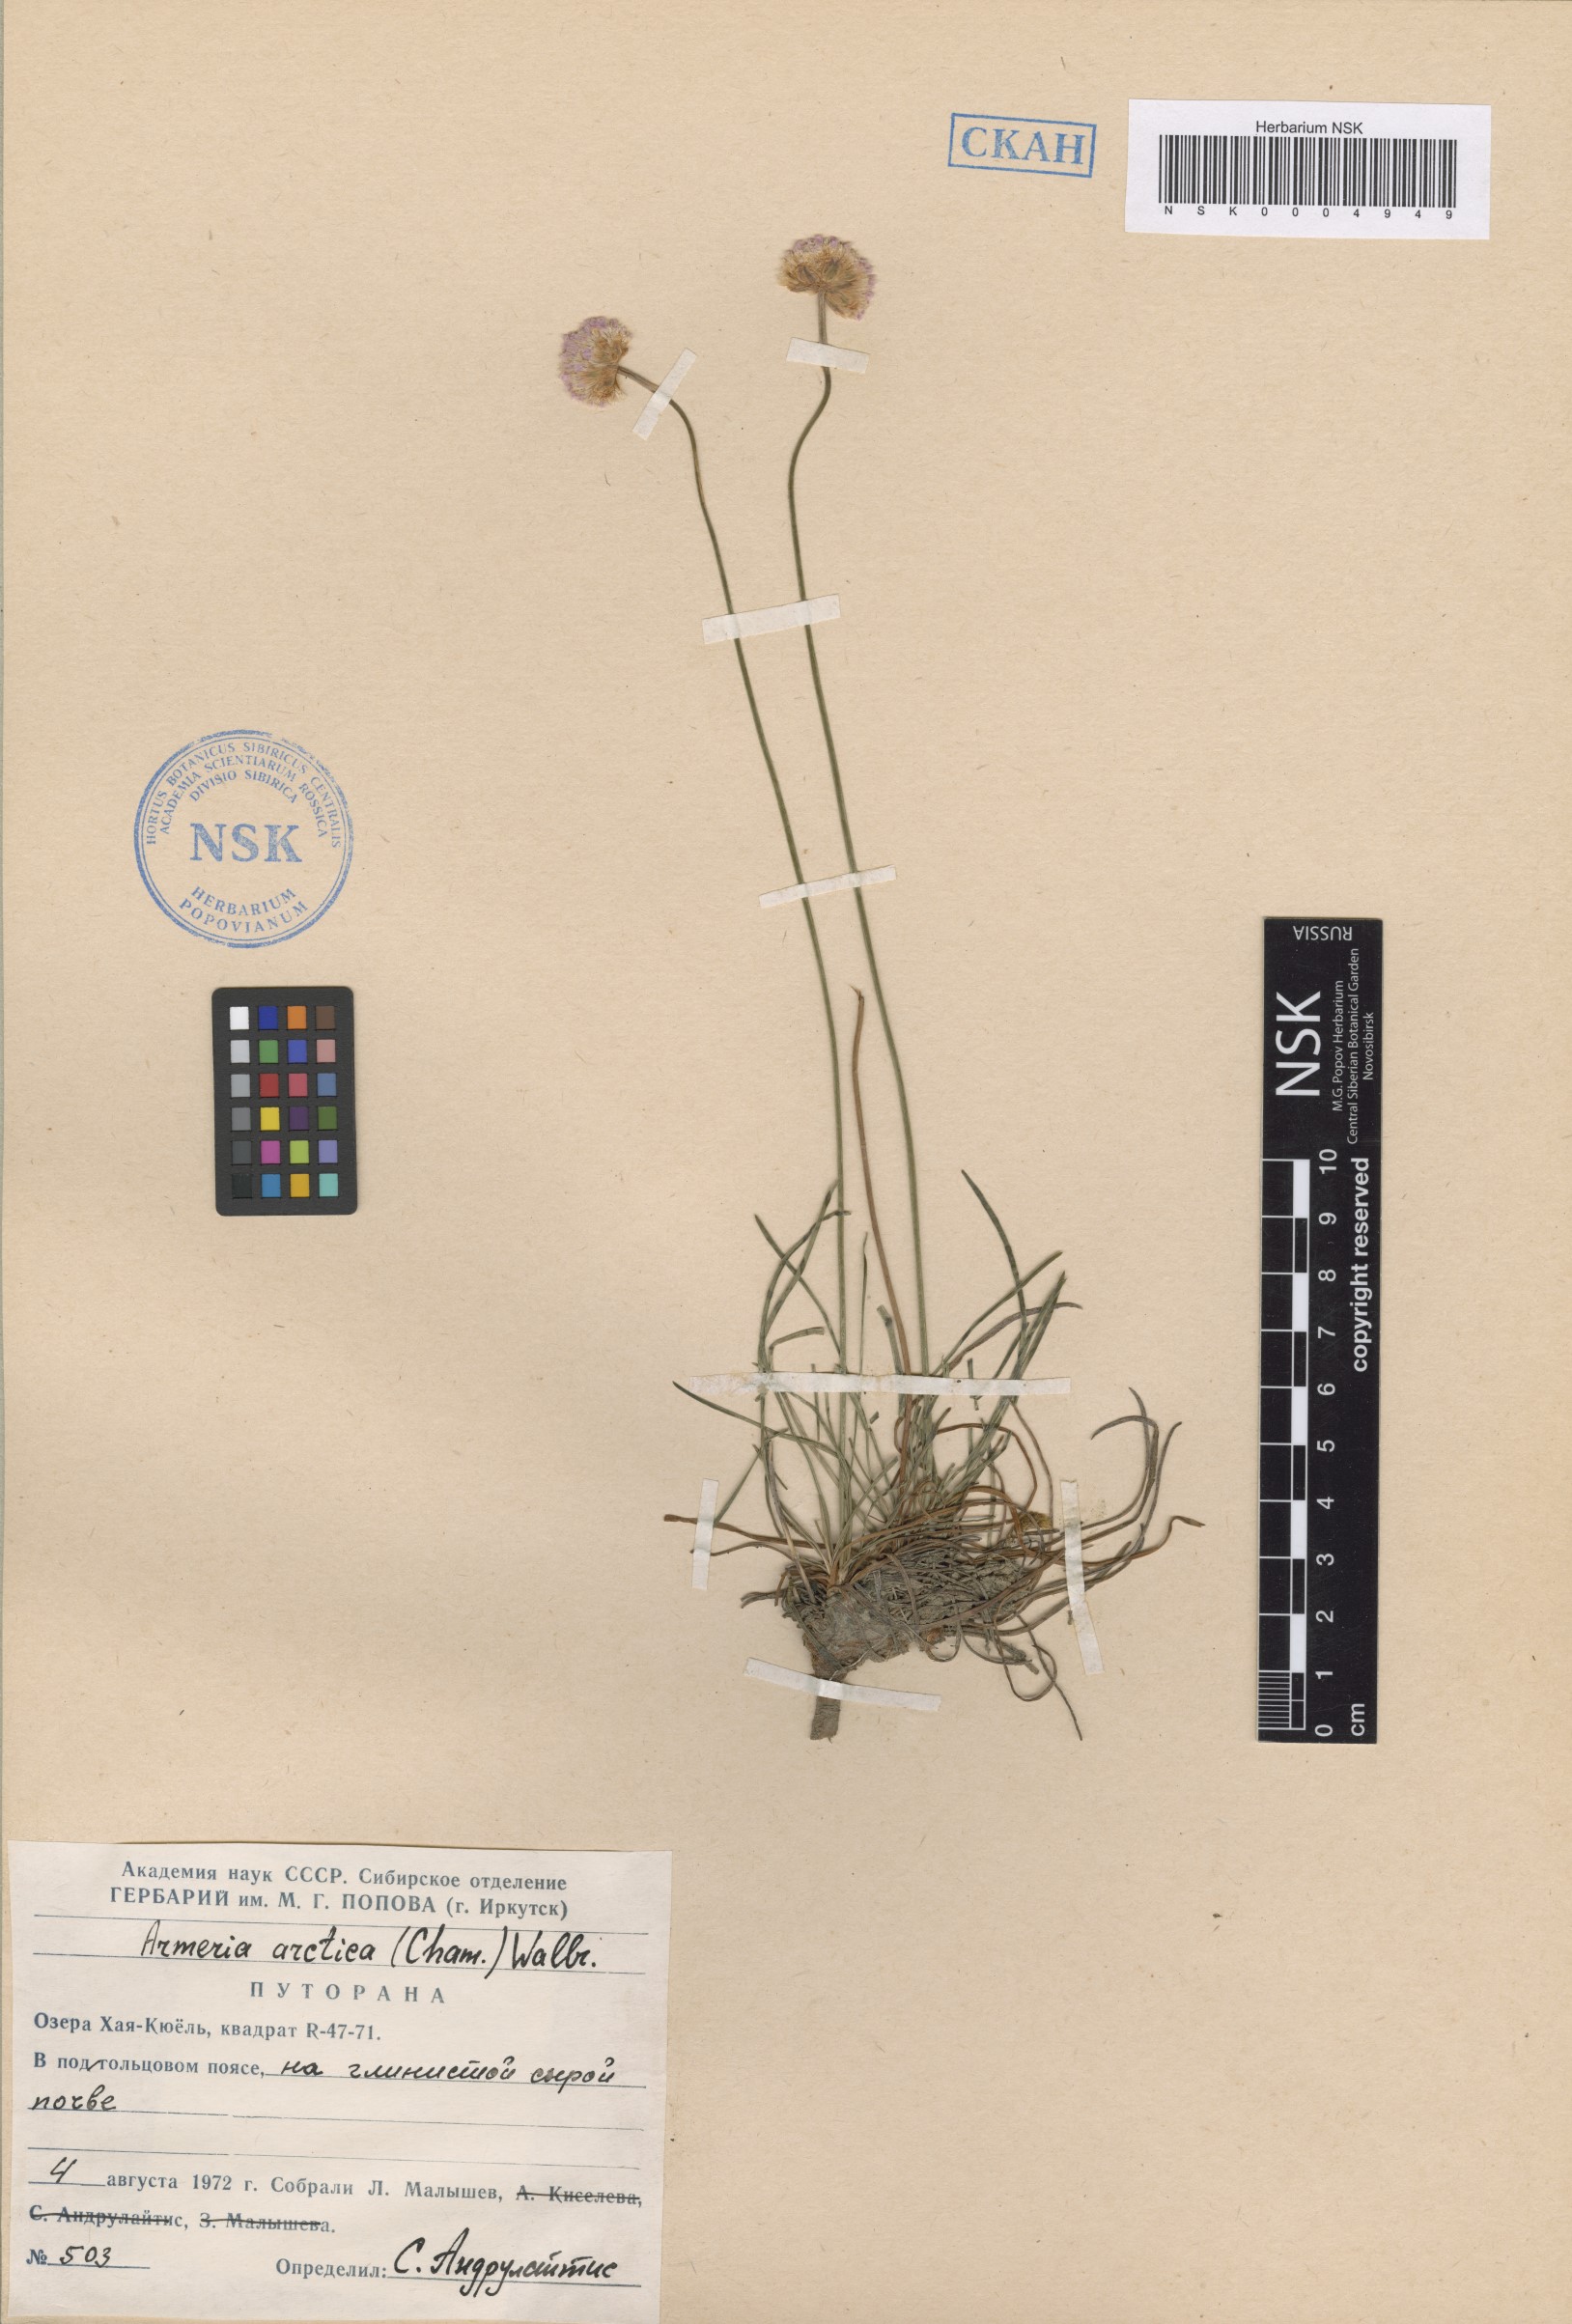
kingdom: Plantae
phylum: Tracheophyta
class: Magnoliopsida
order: Caryophyllales
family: Plumbaginaceae
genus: Armeria
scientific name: Armeria maritima
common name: Thrift
